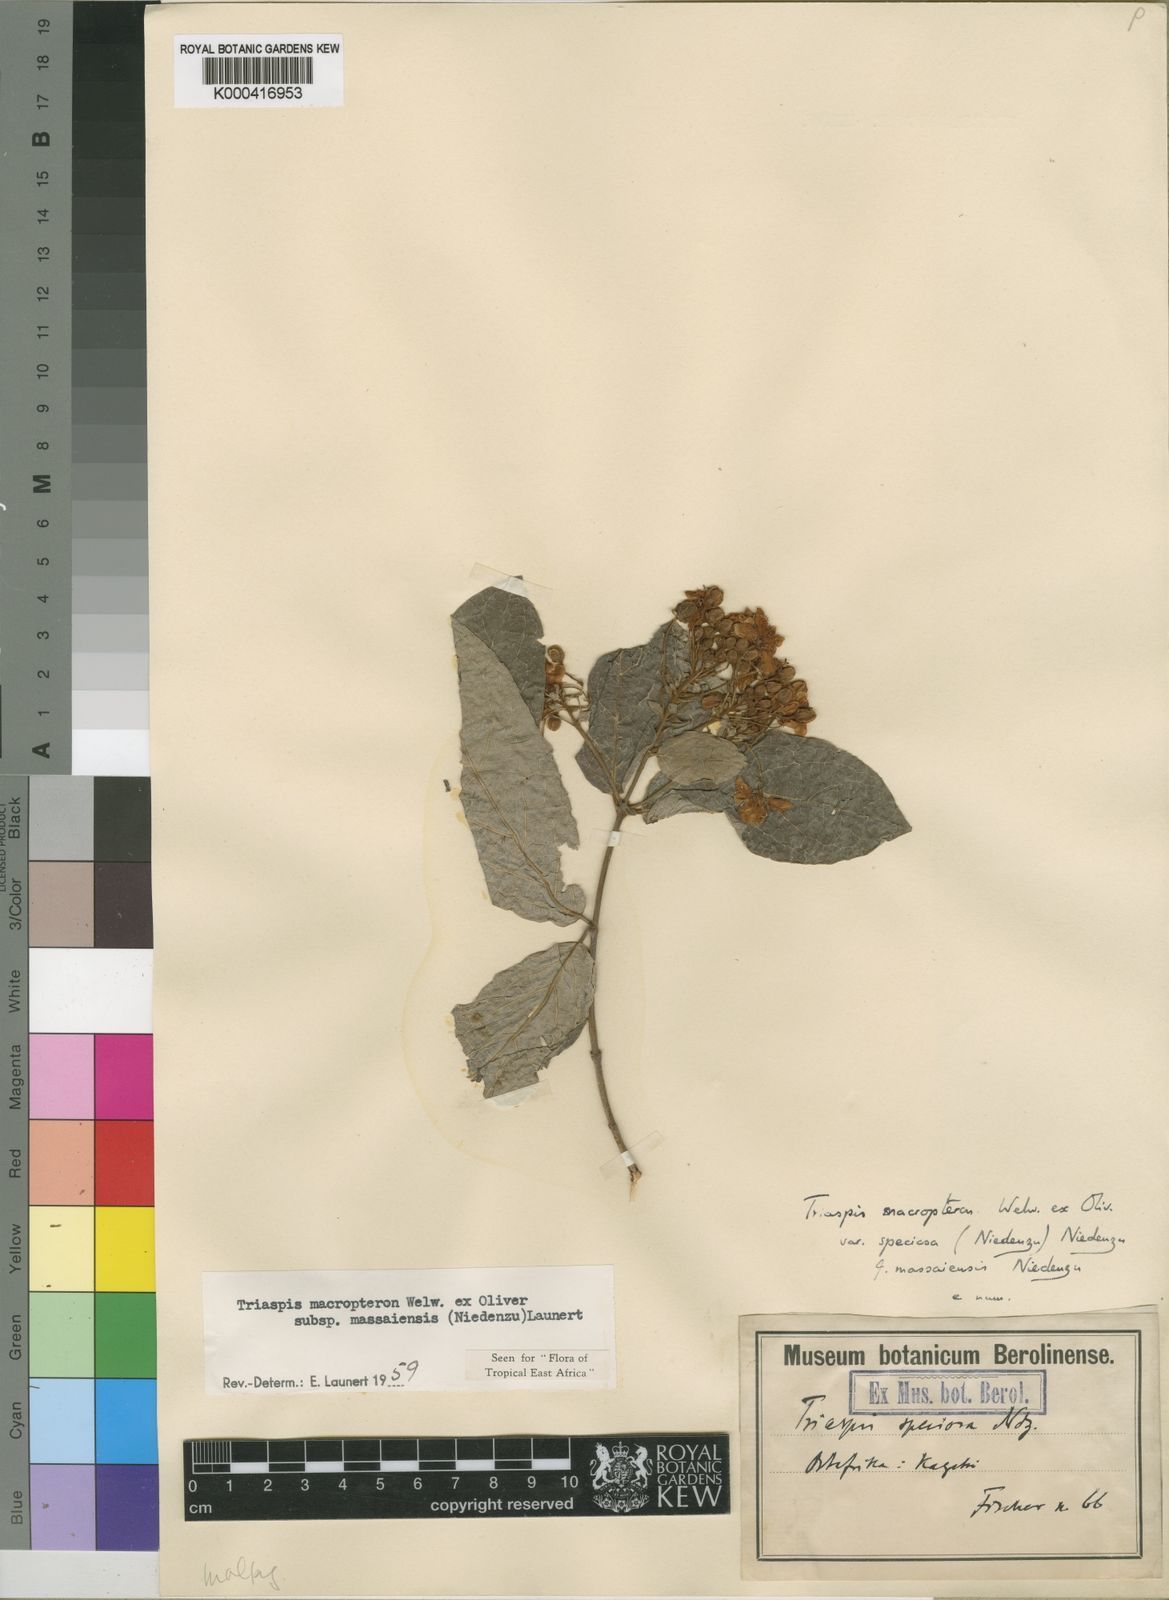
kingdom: Plantae
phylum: Tracheophyta
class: Magnoliopsida
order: Malpighiales
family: Malpighiaceae
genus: Triaspis
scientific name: Triaspis macropteron
